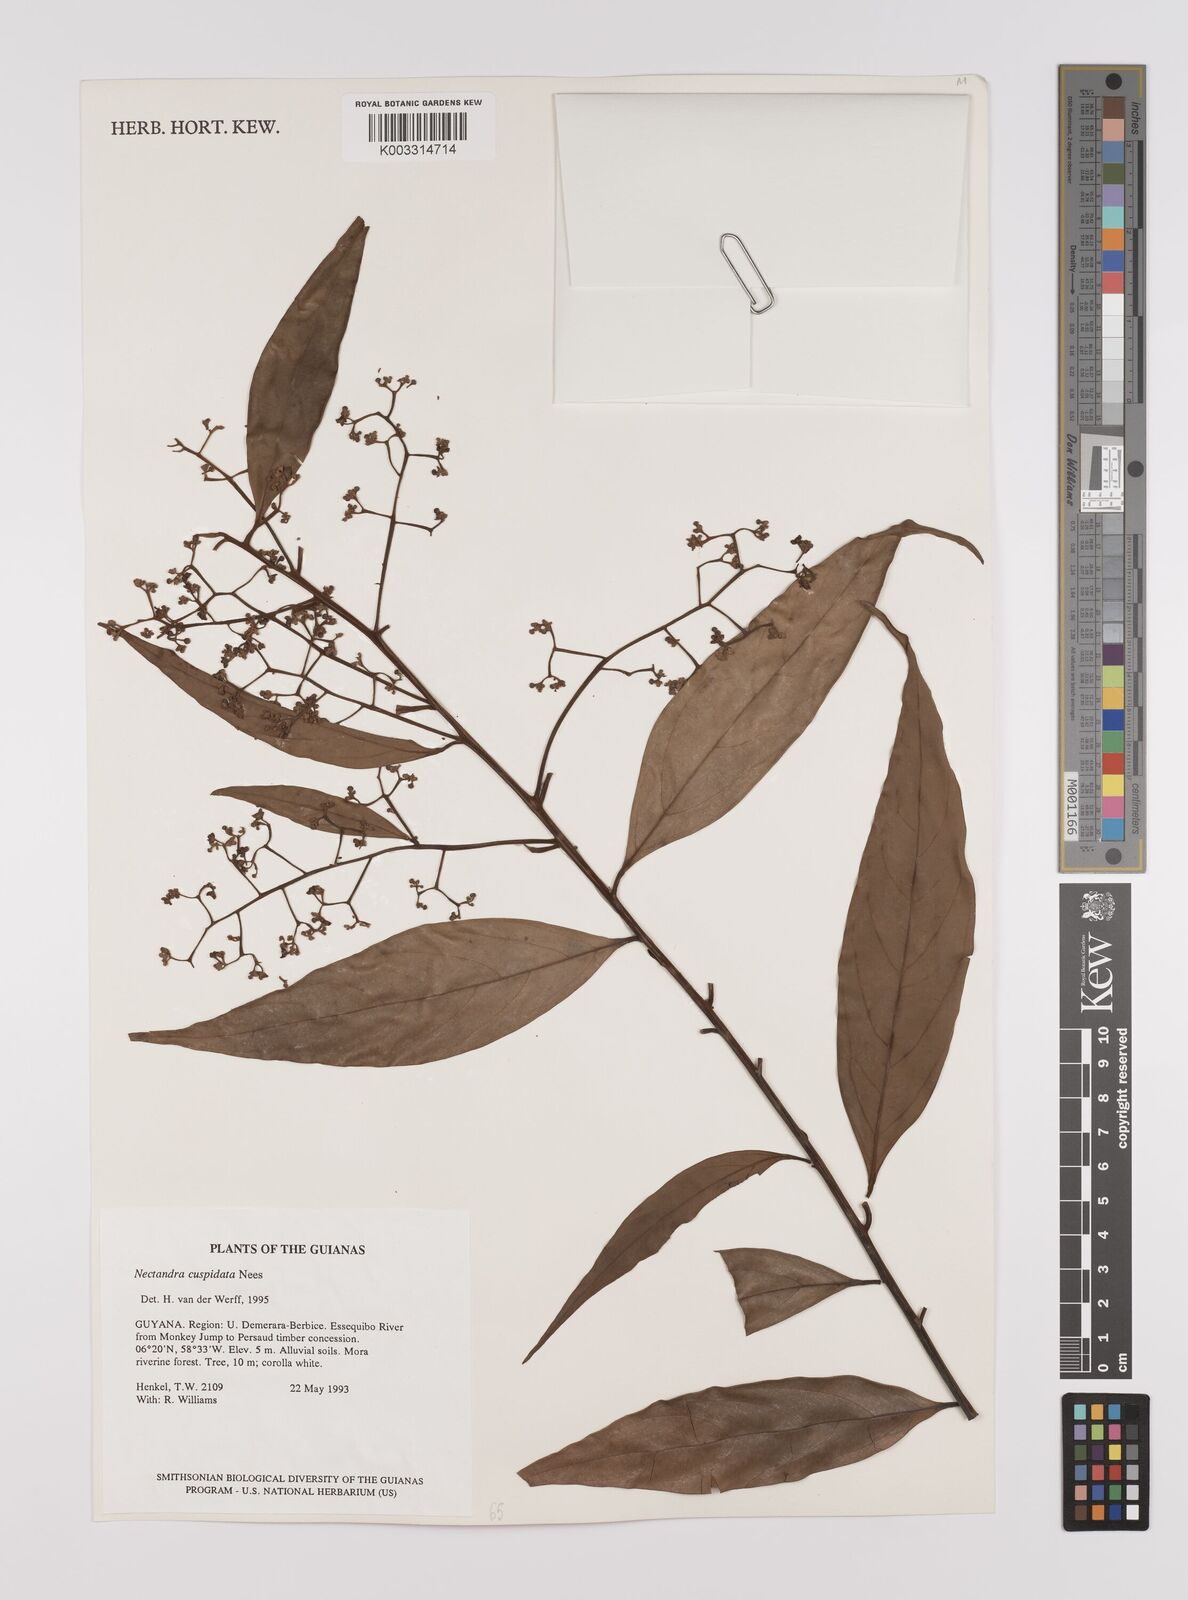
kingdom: Plantae
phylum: Tracheophyta
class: Magnoliopsida
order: Laurales
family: Lauraceae
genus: Nectandra
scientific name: Nectandra cuspidata
